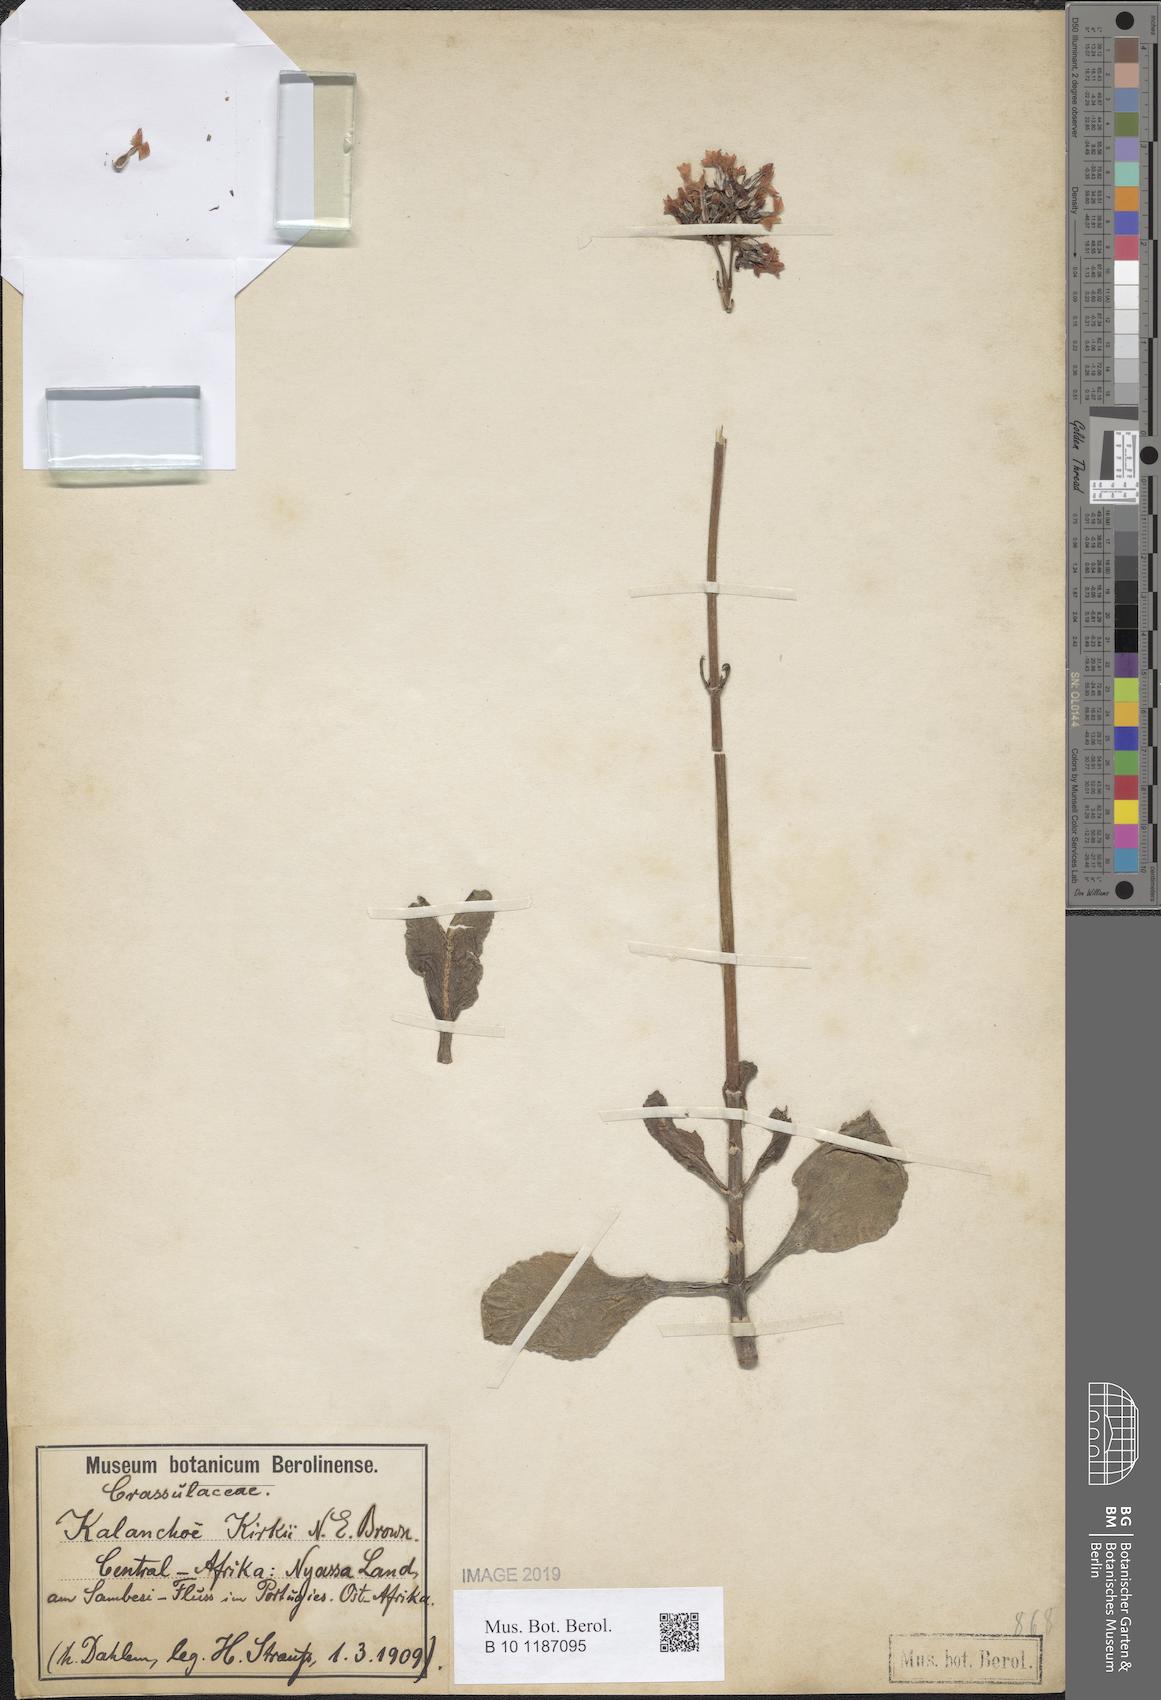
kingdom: Plantae
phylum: Tracheophyta
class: Magnoliopsida
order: Saxifragales
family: Crassulaceae
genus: Kalanchoe
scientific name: Kalanchoe lateritia
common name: Kalanchoe
